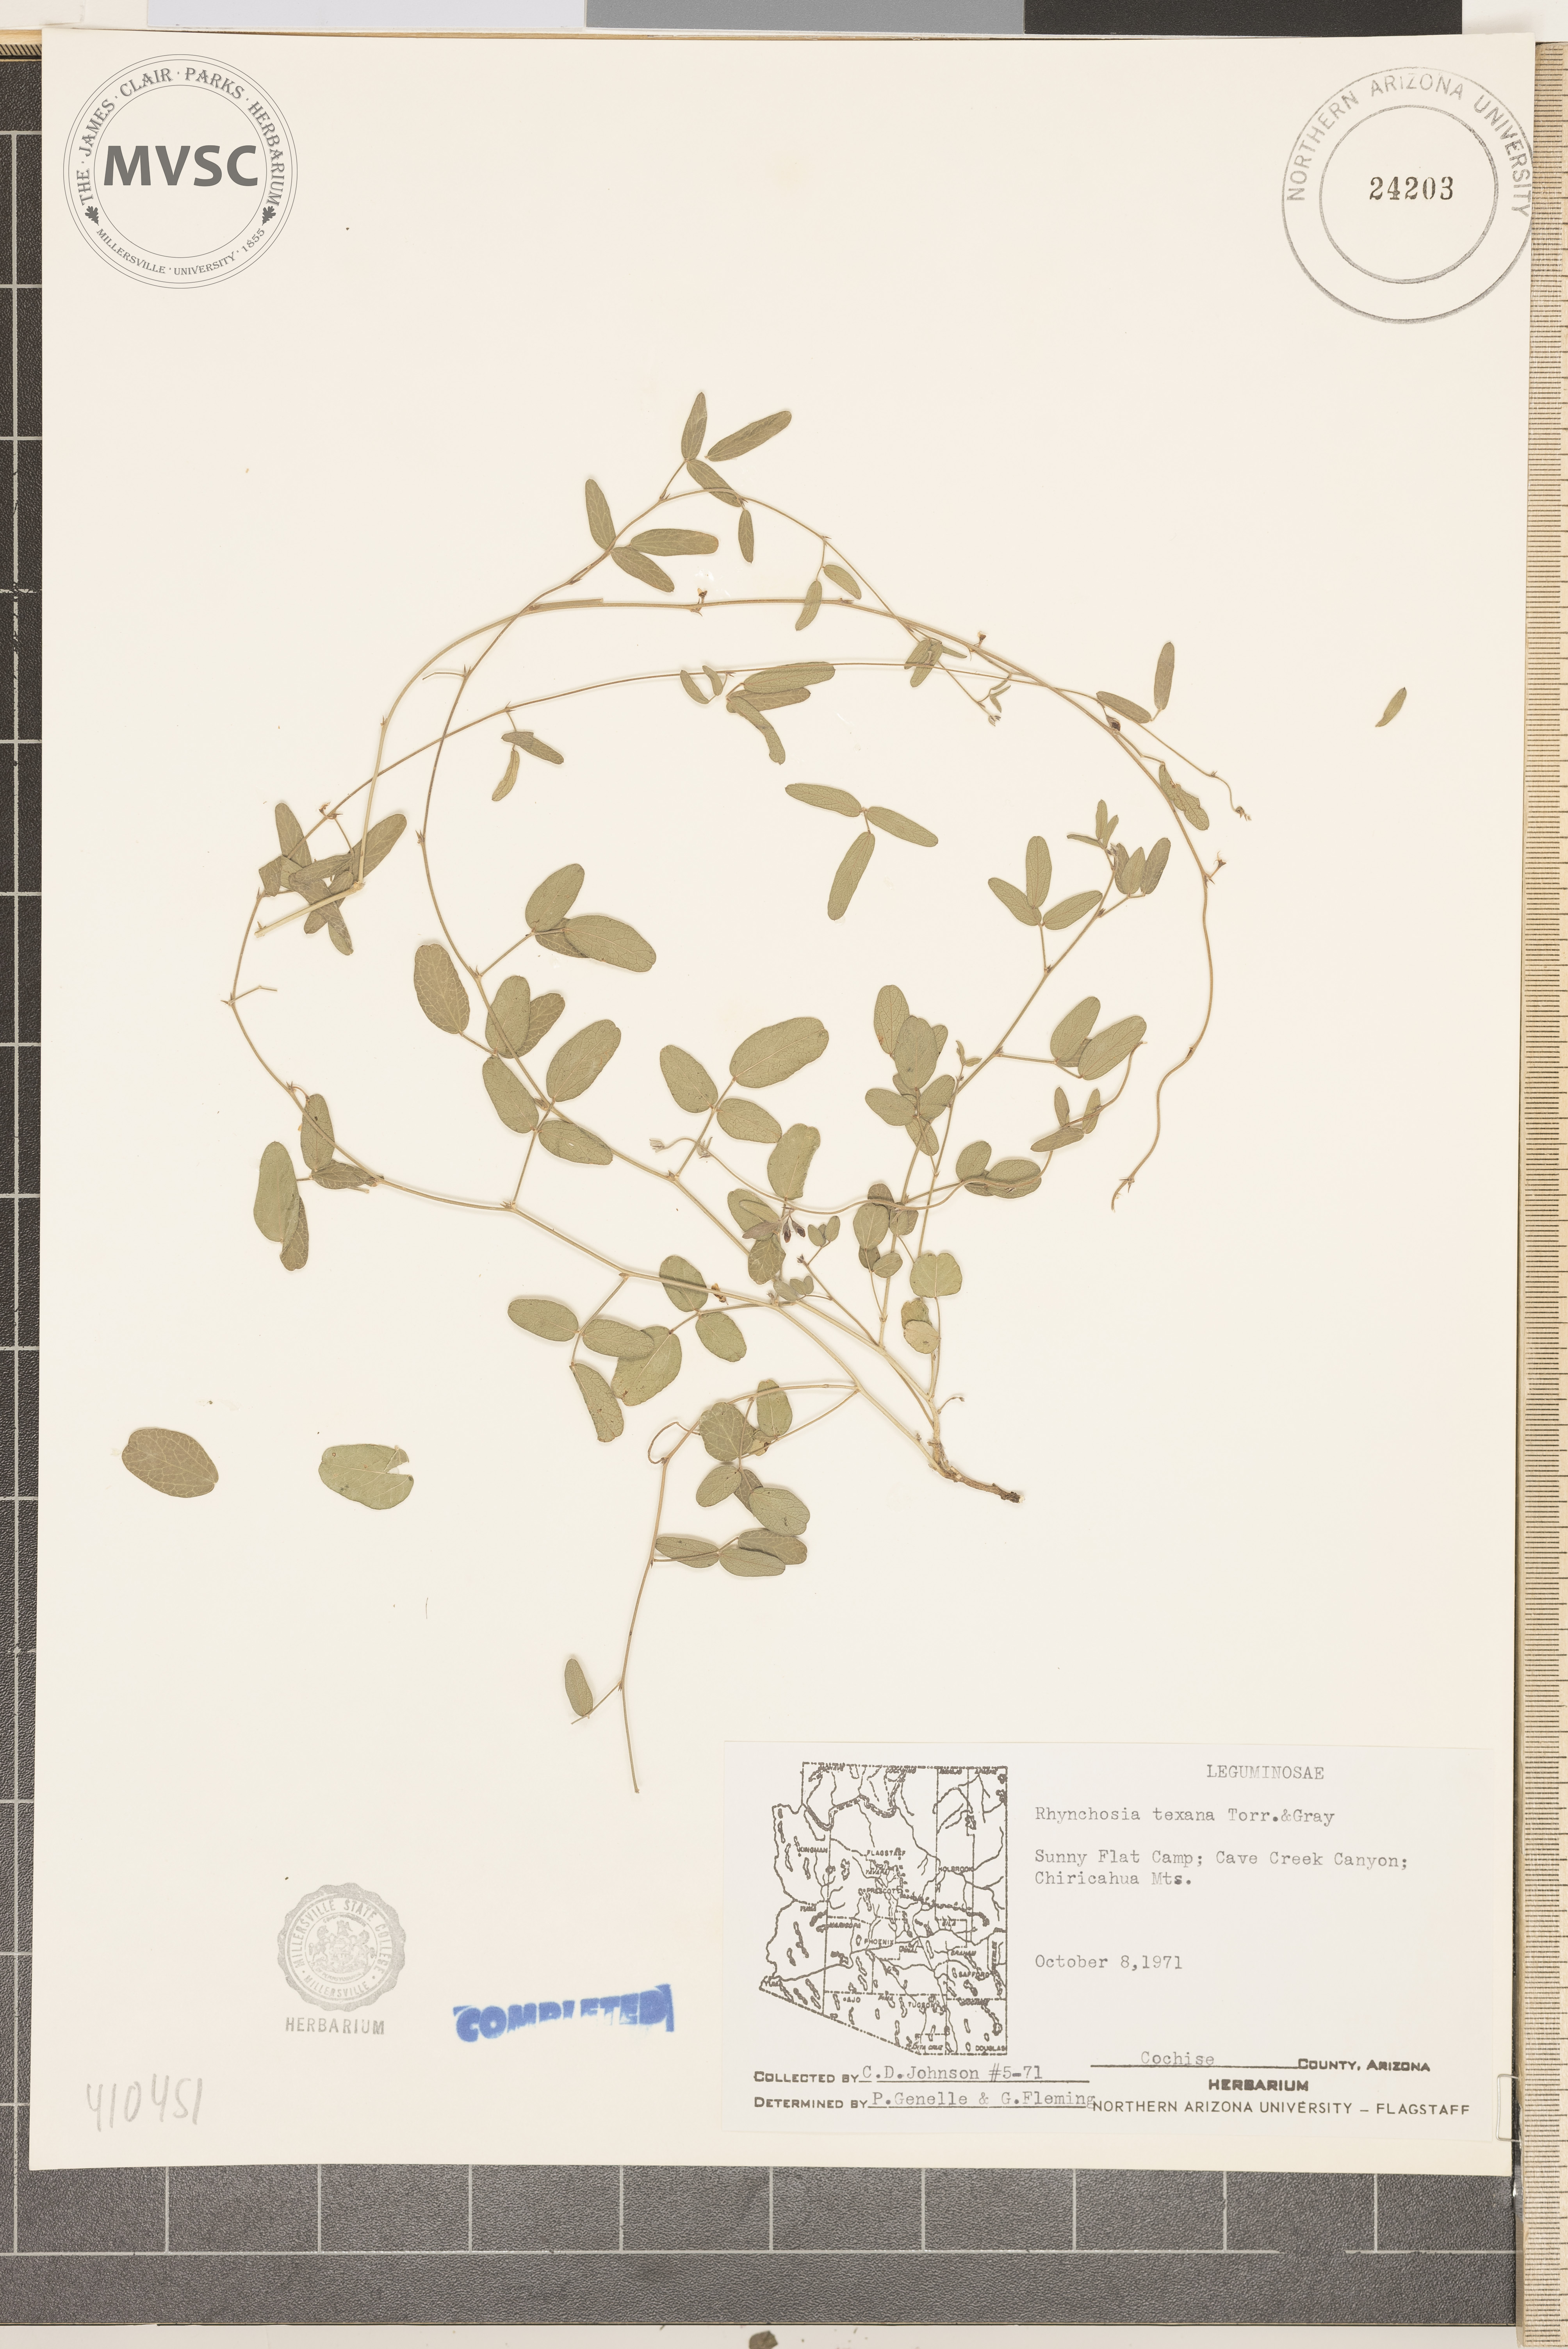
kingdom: Plantae
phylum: Tracheophyta
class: Magnoliopsida
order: Fabales
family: Fabaceae
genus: Rhynchosia
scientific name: Rhynchosia senna
